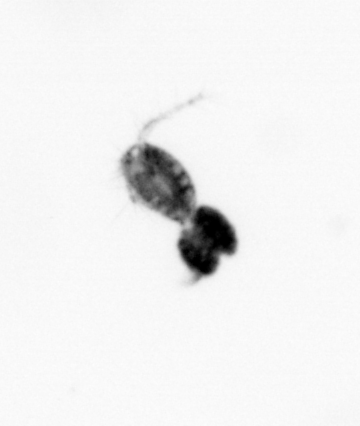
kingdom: Animalia
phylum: Arthropoda
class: Copepoda
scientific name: Copepoda
